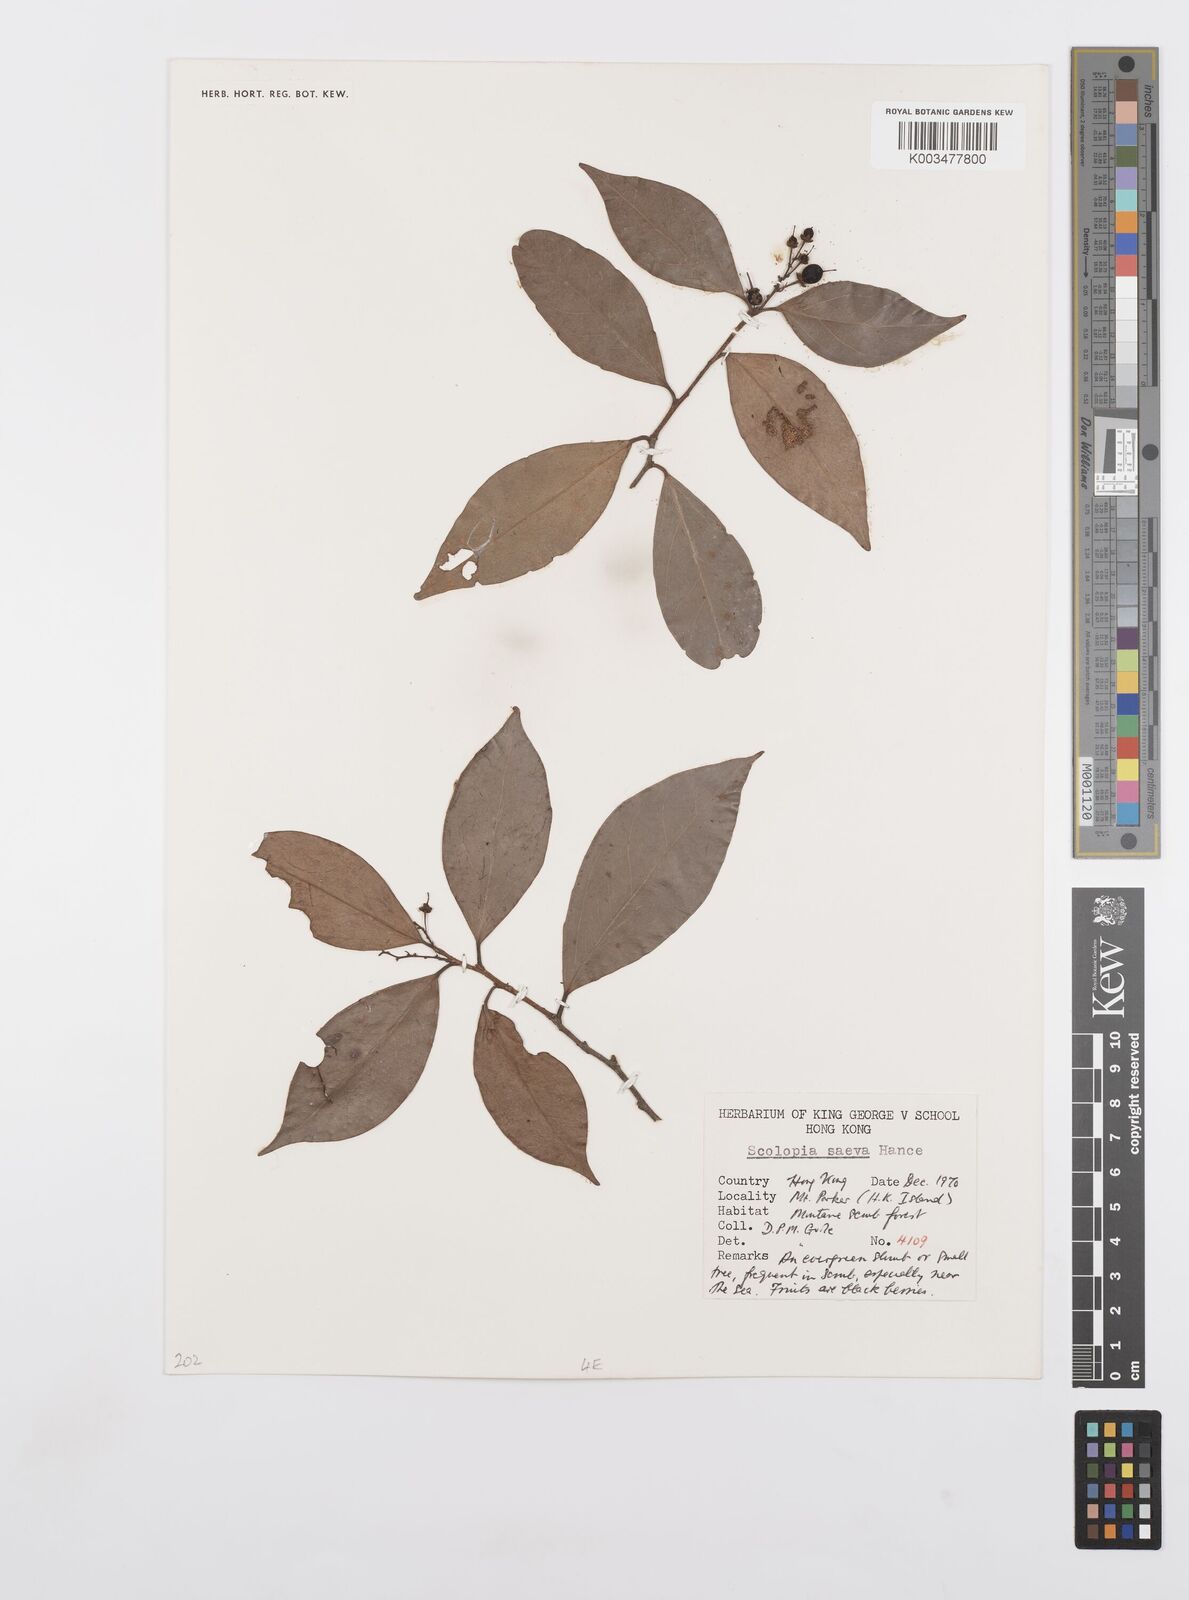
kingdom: Plantae
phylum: Tracheophyta
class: Magnoliopsida
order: Malpighiales
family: Salicaceae
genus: Scolopia
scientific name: Scolopia saeva
